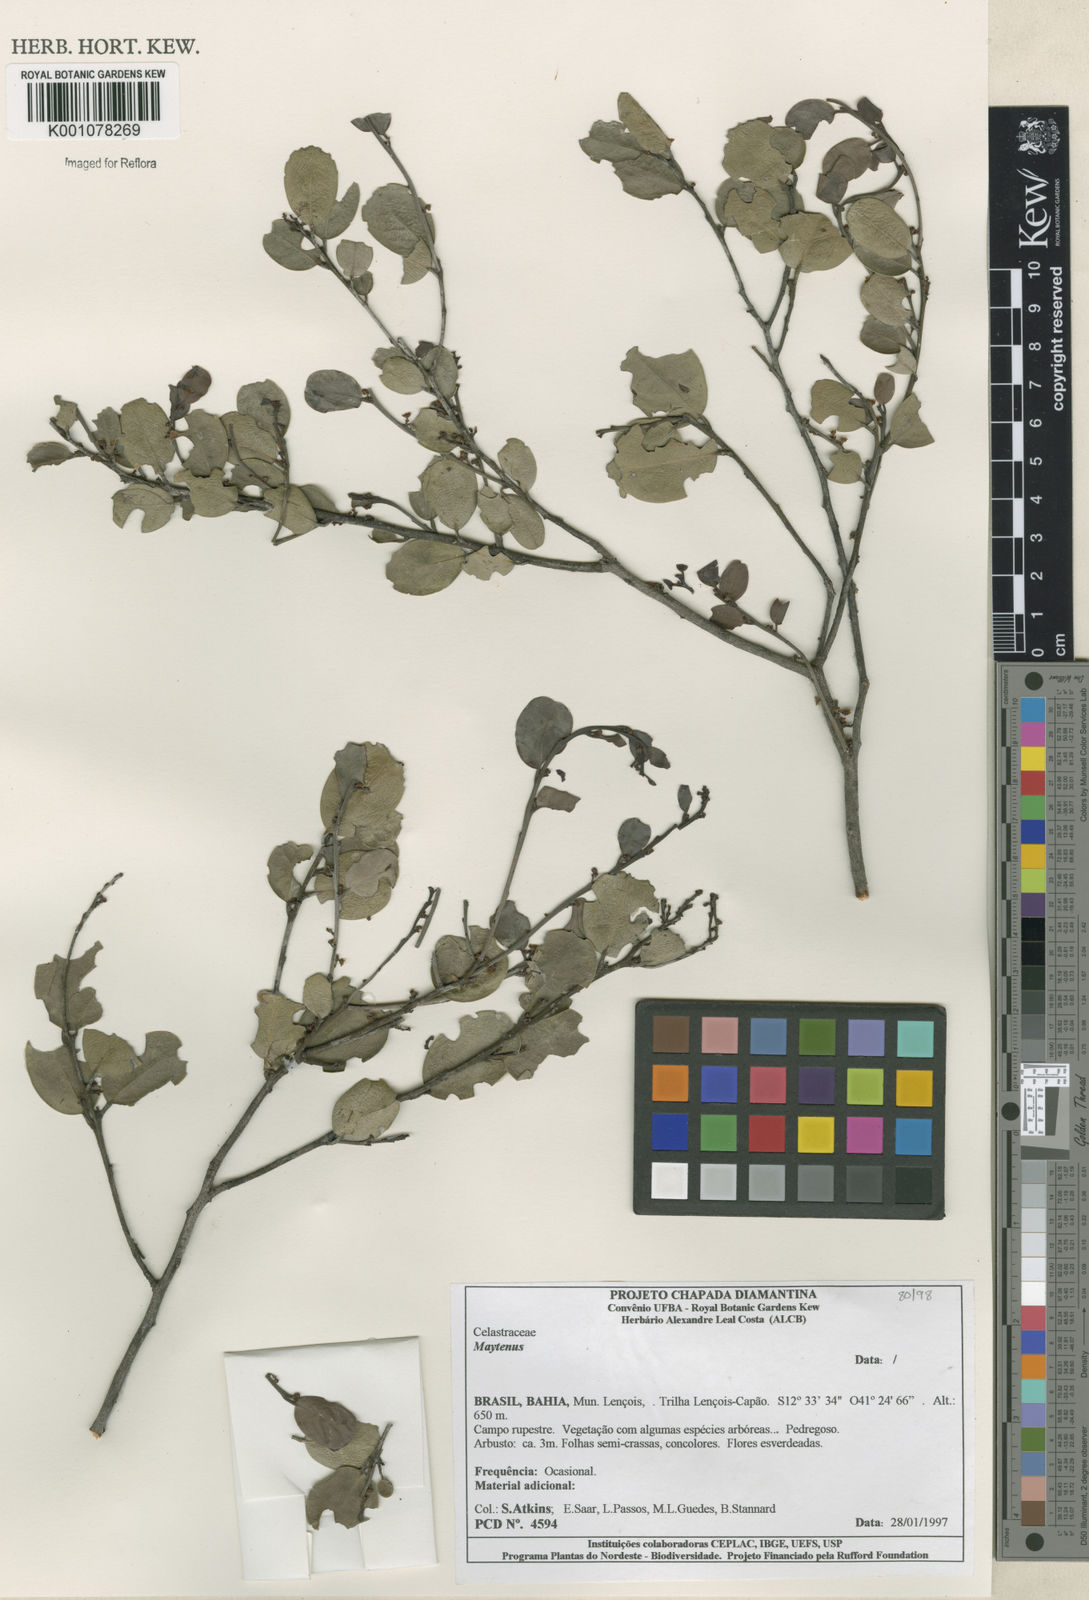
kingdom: Plantae
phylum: Tracheophyta
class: Magnoliopsida
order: Celastrales
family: Celastraceae
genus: Maytenus
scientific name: Maytenus
